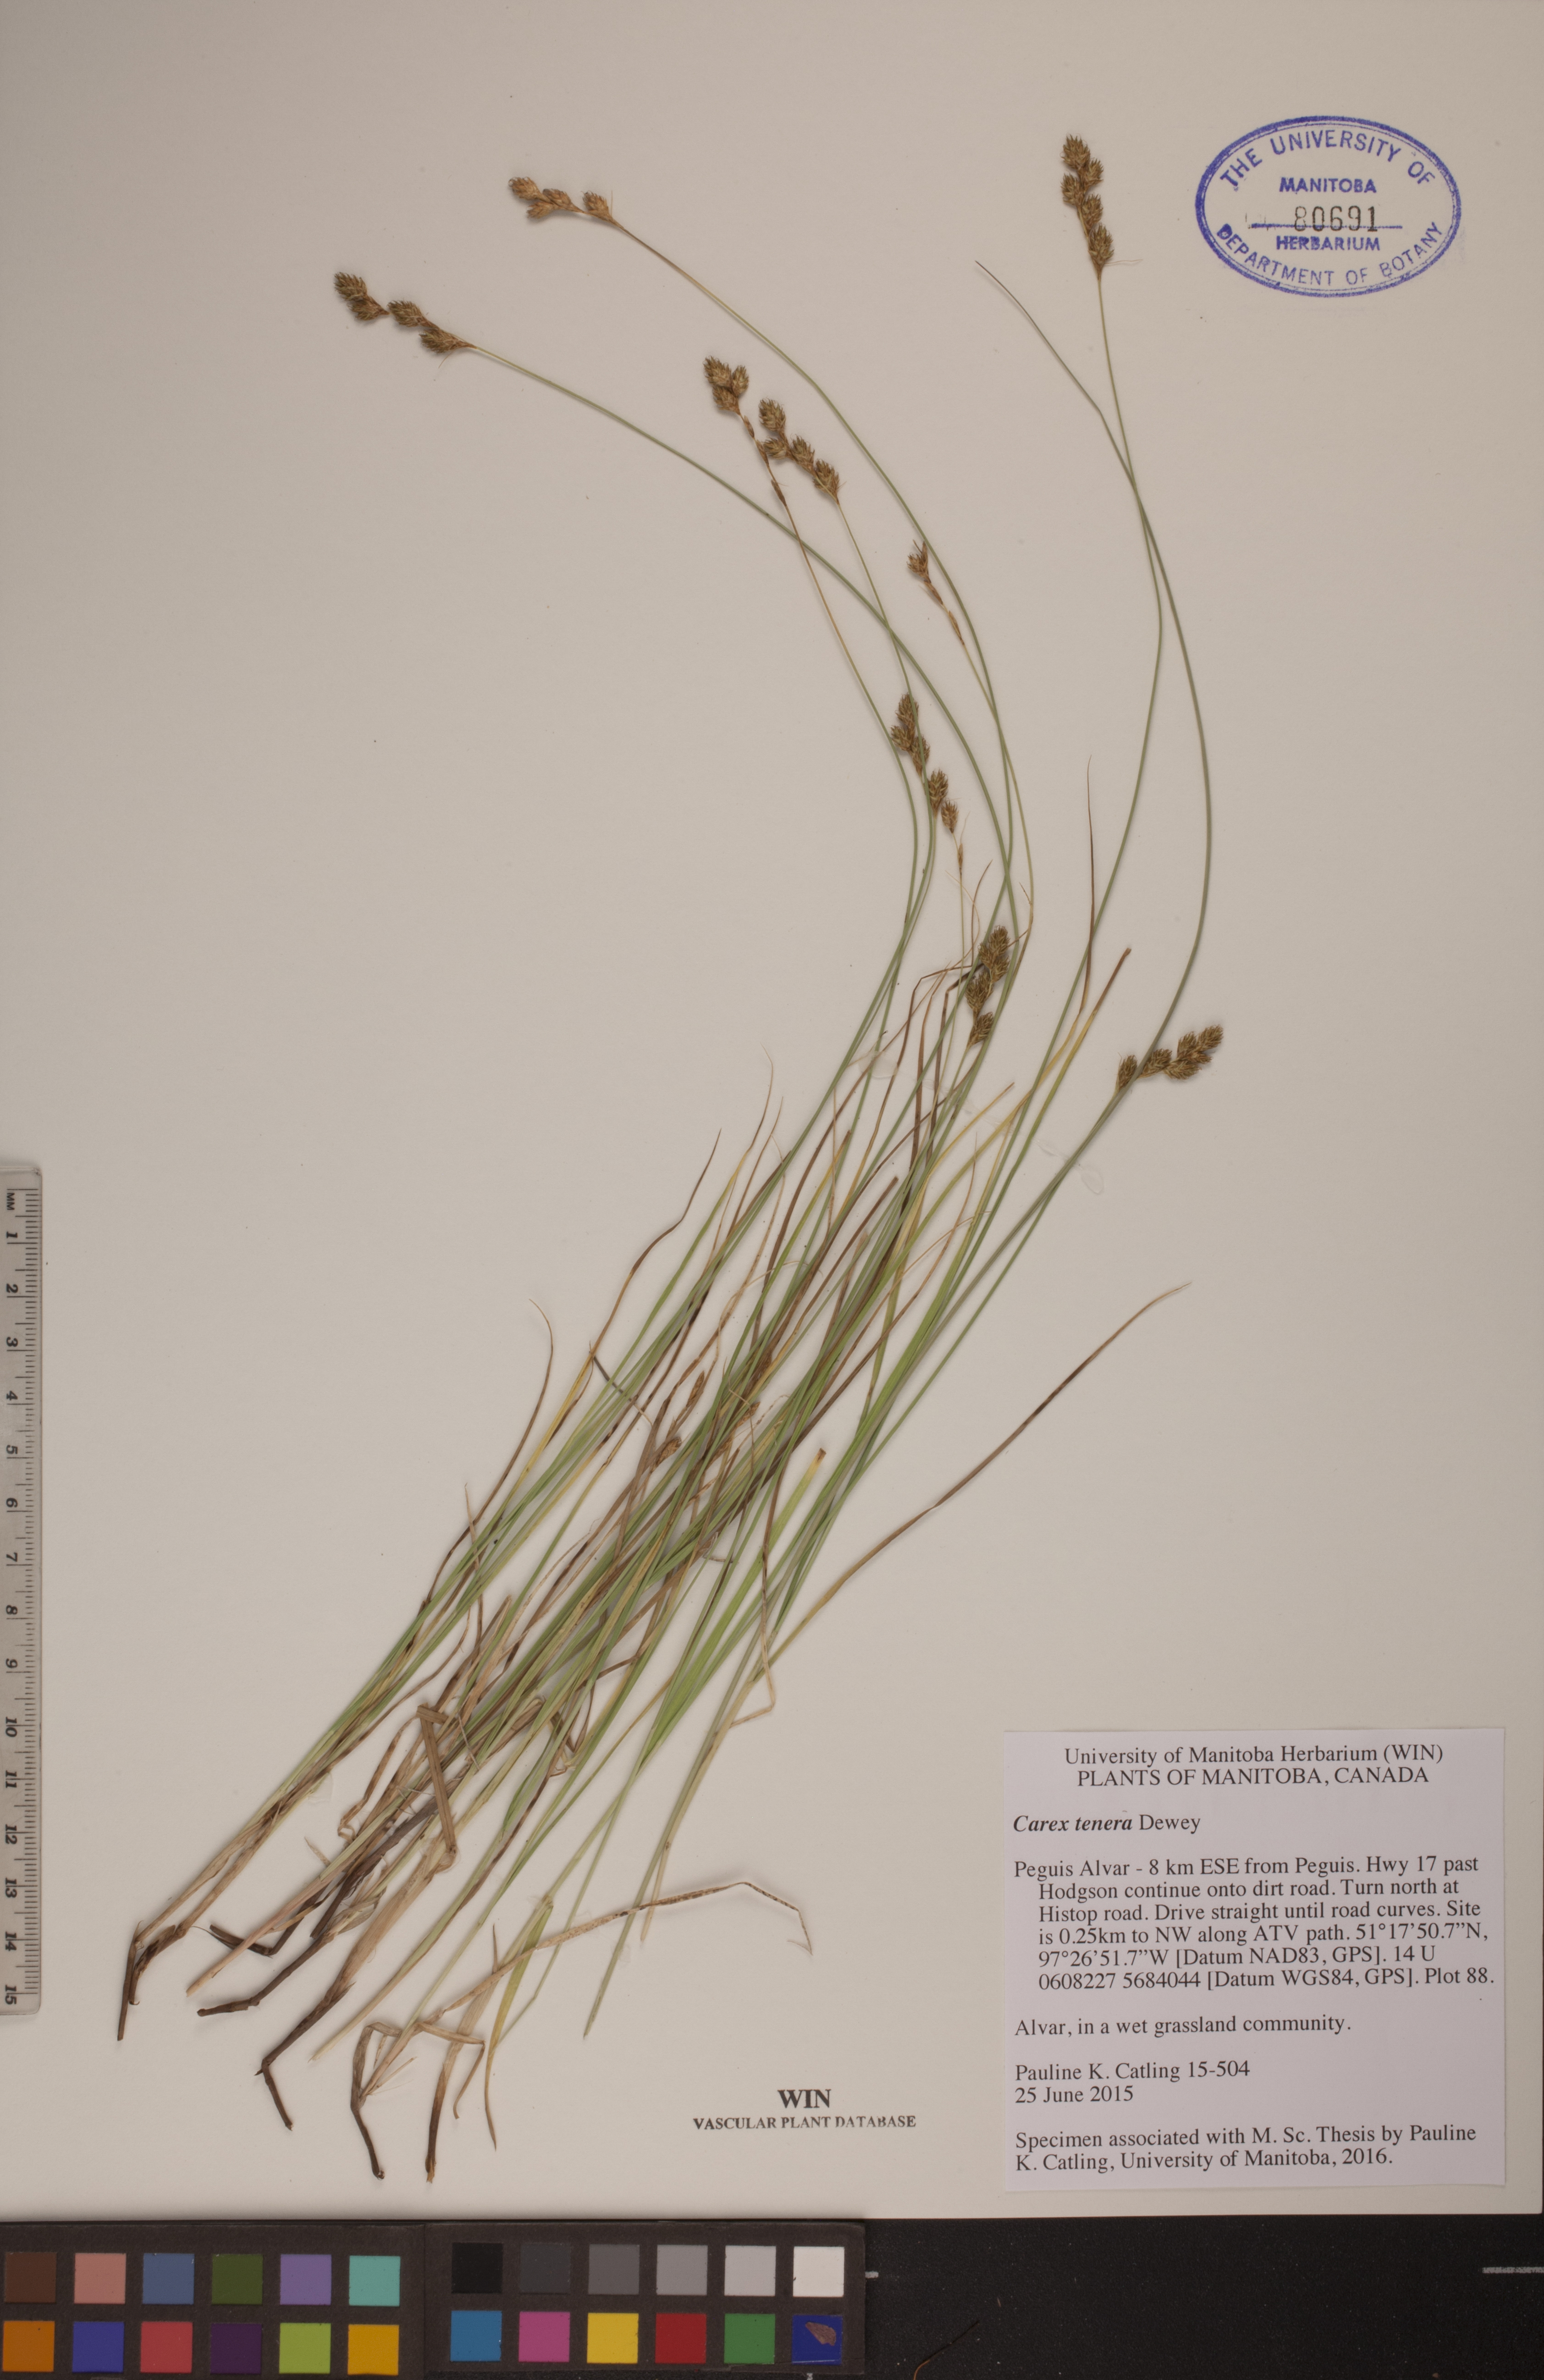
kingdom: Plantae
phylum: Tracheophyta
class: Liliopsida
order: Poales
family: Cyperaceae
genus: Carex
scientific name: Carex tenera
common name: Broad-fruited sedge
